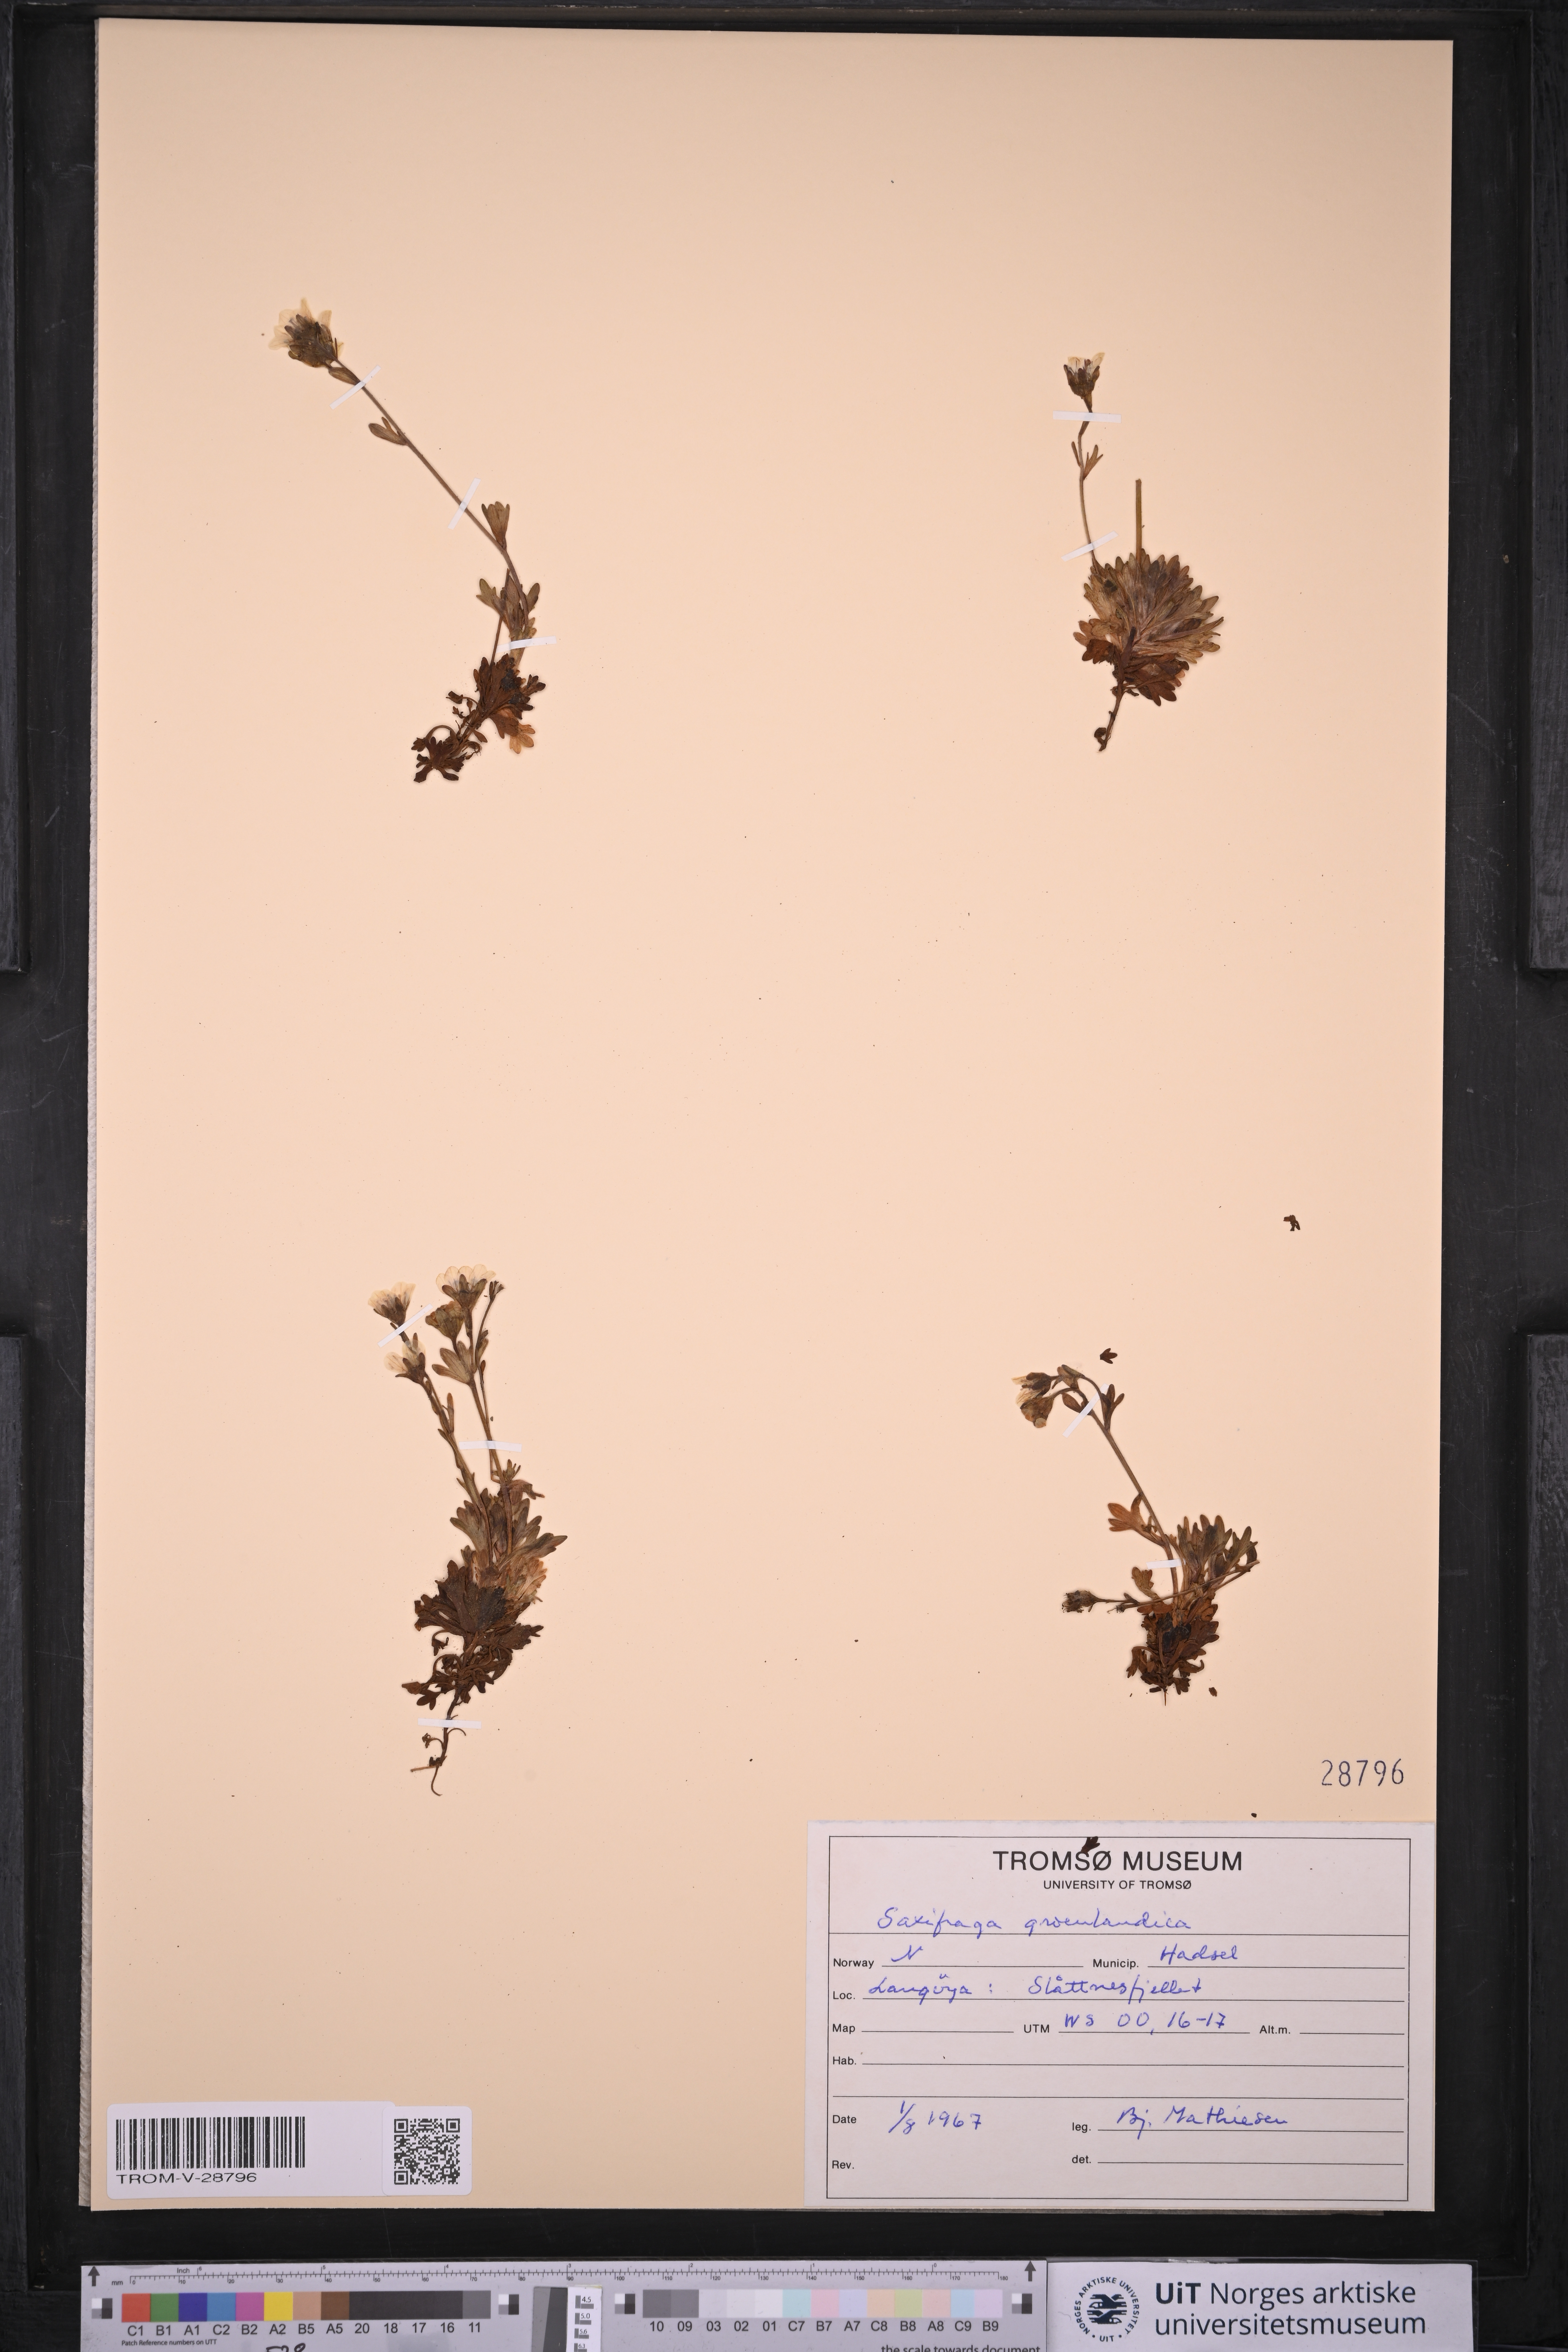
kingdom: Plantae
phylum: Tracheophyta
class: Magnoliopsida
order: Saxifragales
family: Saxifragaceae
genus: Saxifraga
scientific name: Saxifraga cespitosa
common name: Tufted saxifrage
